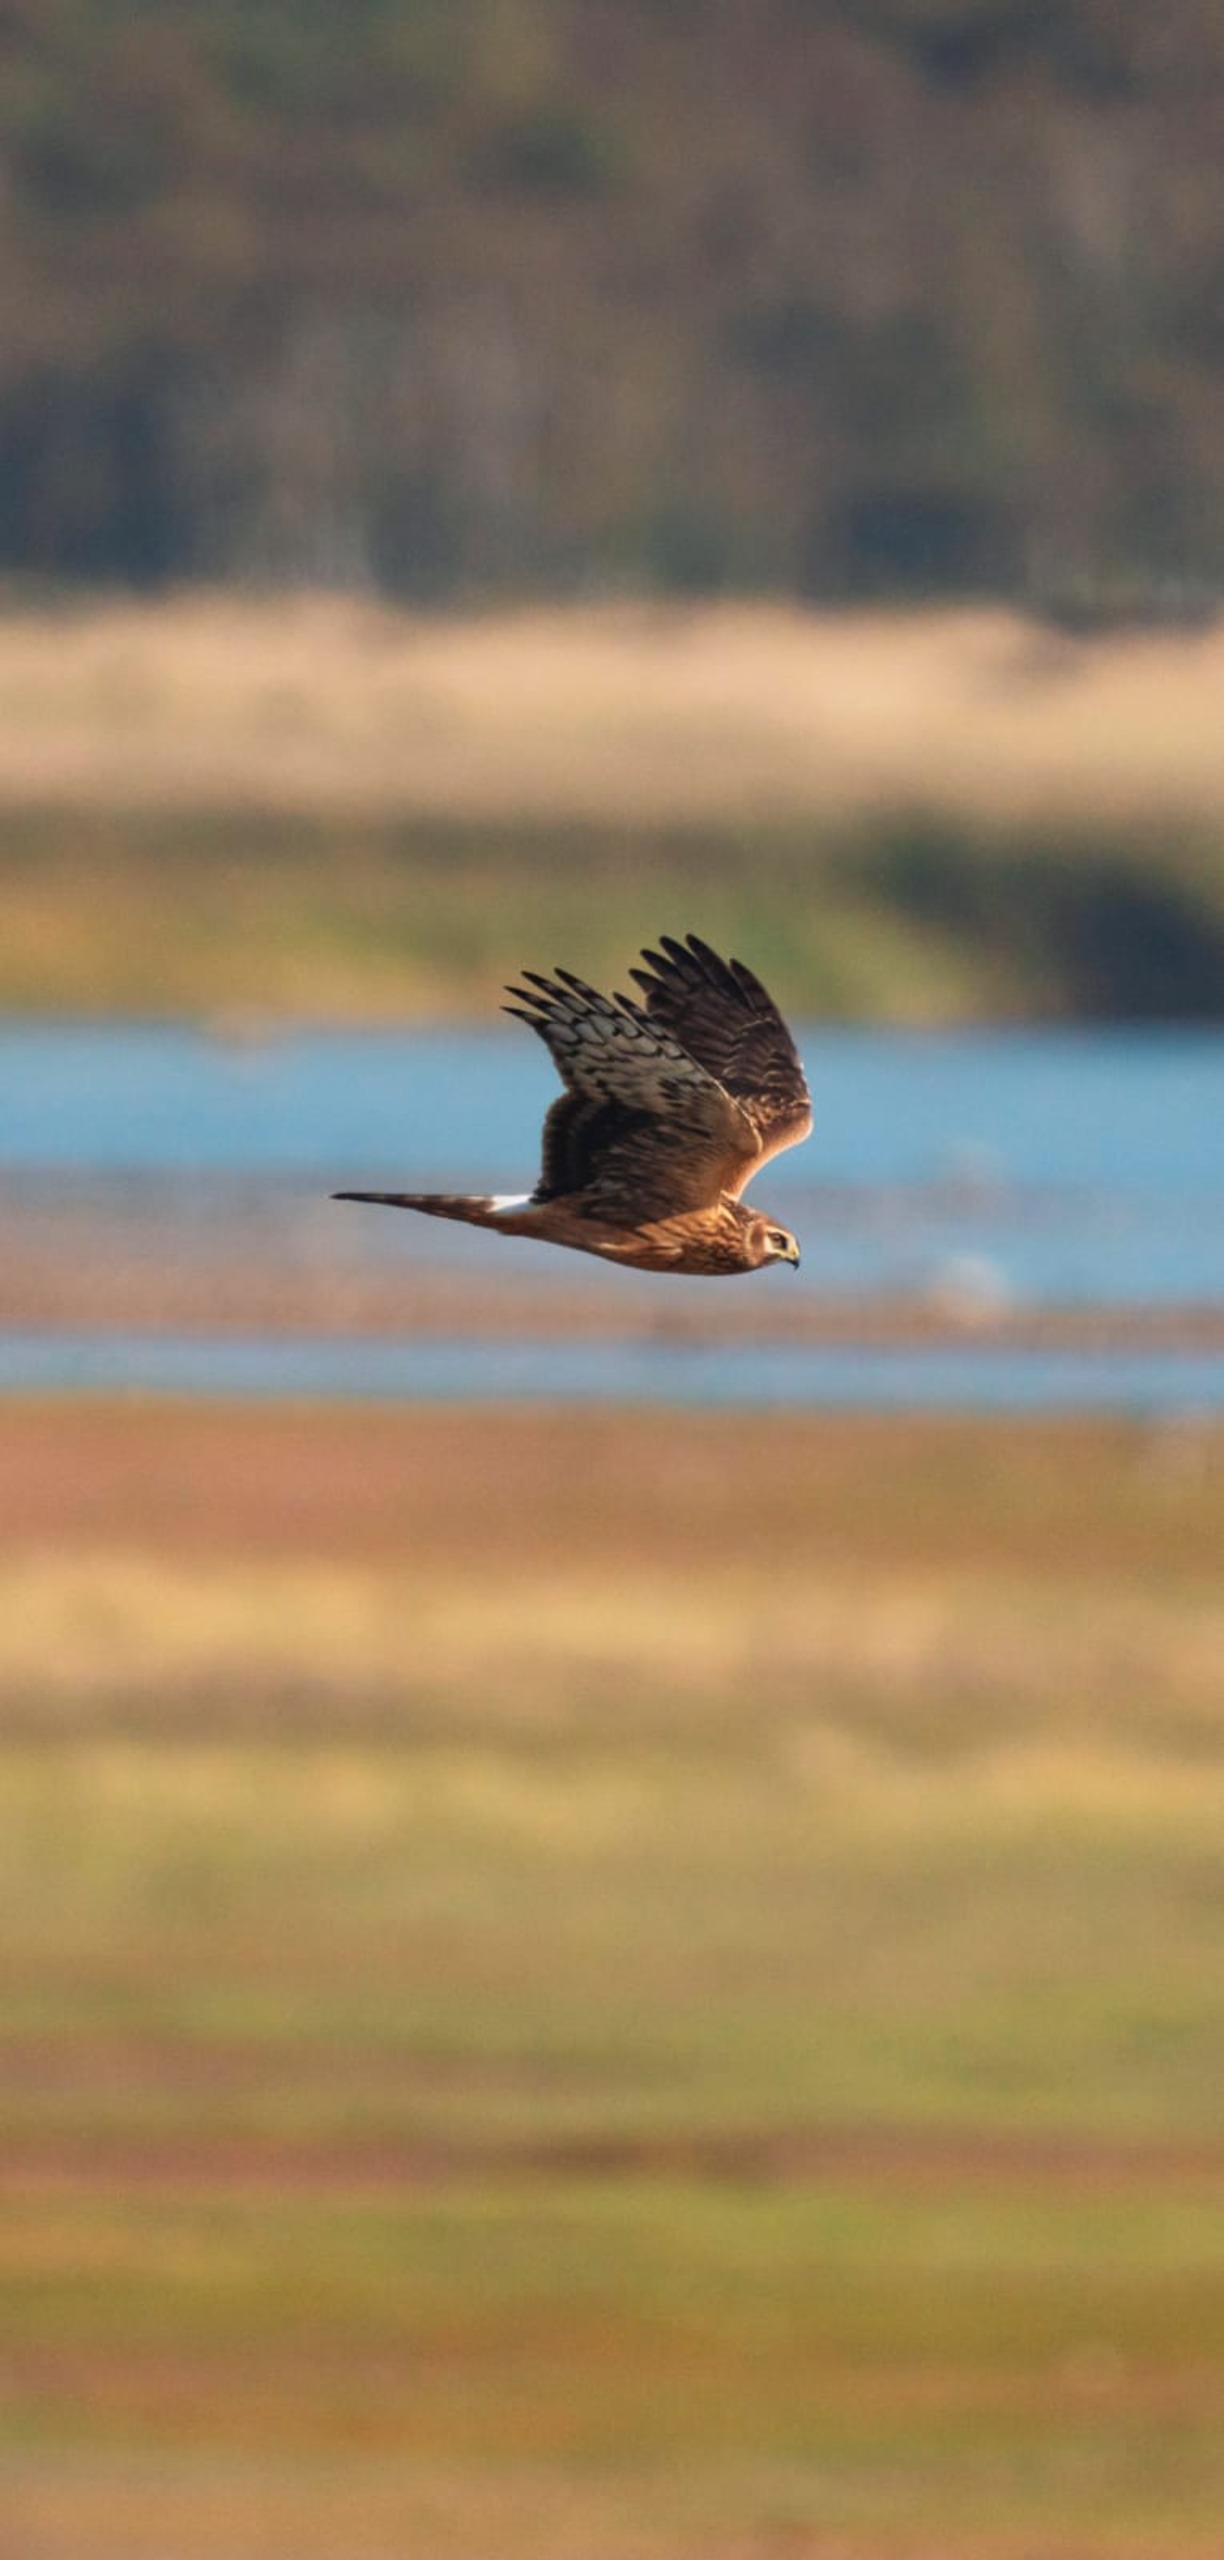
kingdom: Animalia
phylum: Chordata
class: Aves
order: Accipitriformes
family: Accipitridae
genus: Circus
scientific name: Circus cyaneus
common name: Blå kærhøg
